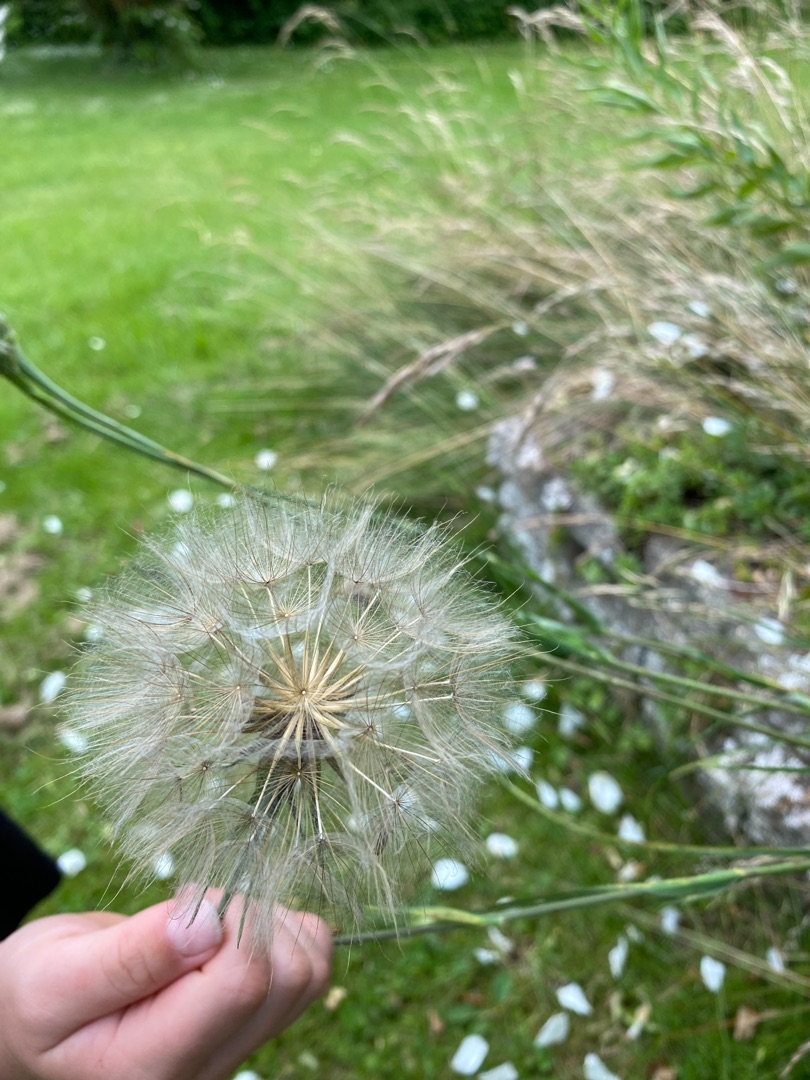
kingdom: Plantae
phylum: Tracheophyta
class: Magnoliopsida
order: Asterales
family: Asteraceae
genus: Tragopogon
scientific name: Tragopogon pratensis
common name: Gedeskæg
